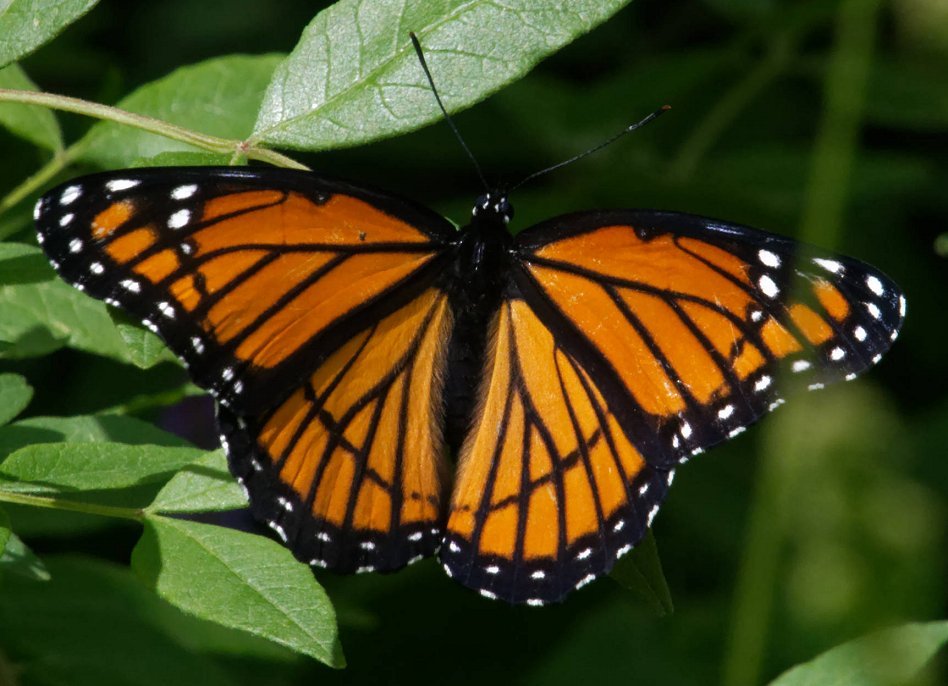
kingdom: Animalia
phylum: Arthropoda
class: Insecta
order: Lepidoptera
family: Nymphalidae
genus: Limenitis
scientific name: Limenitis archippus
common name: Viceroy
